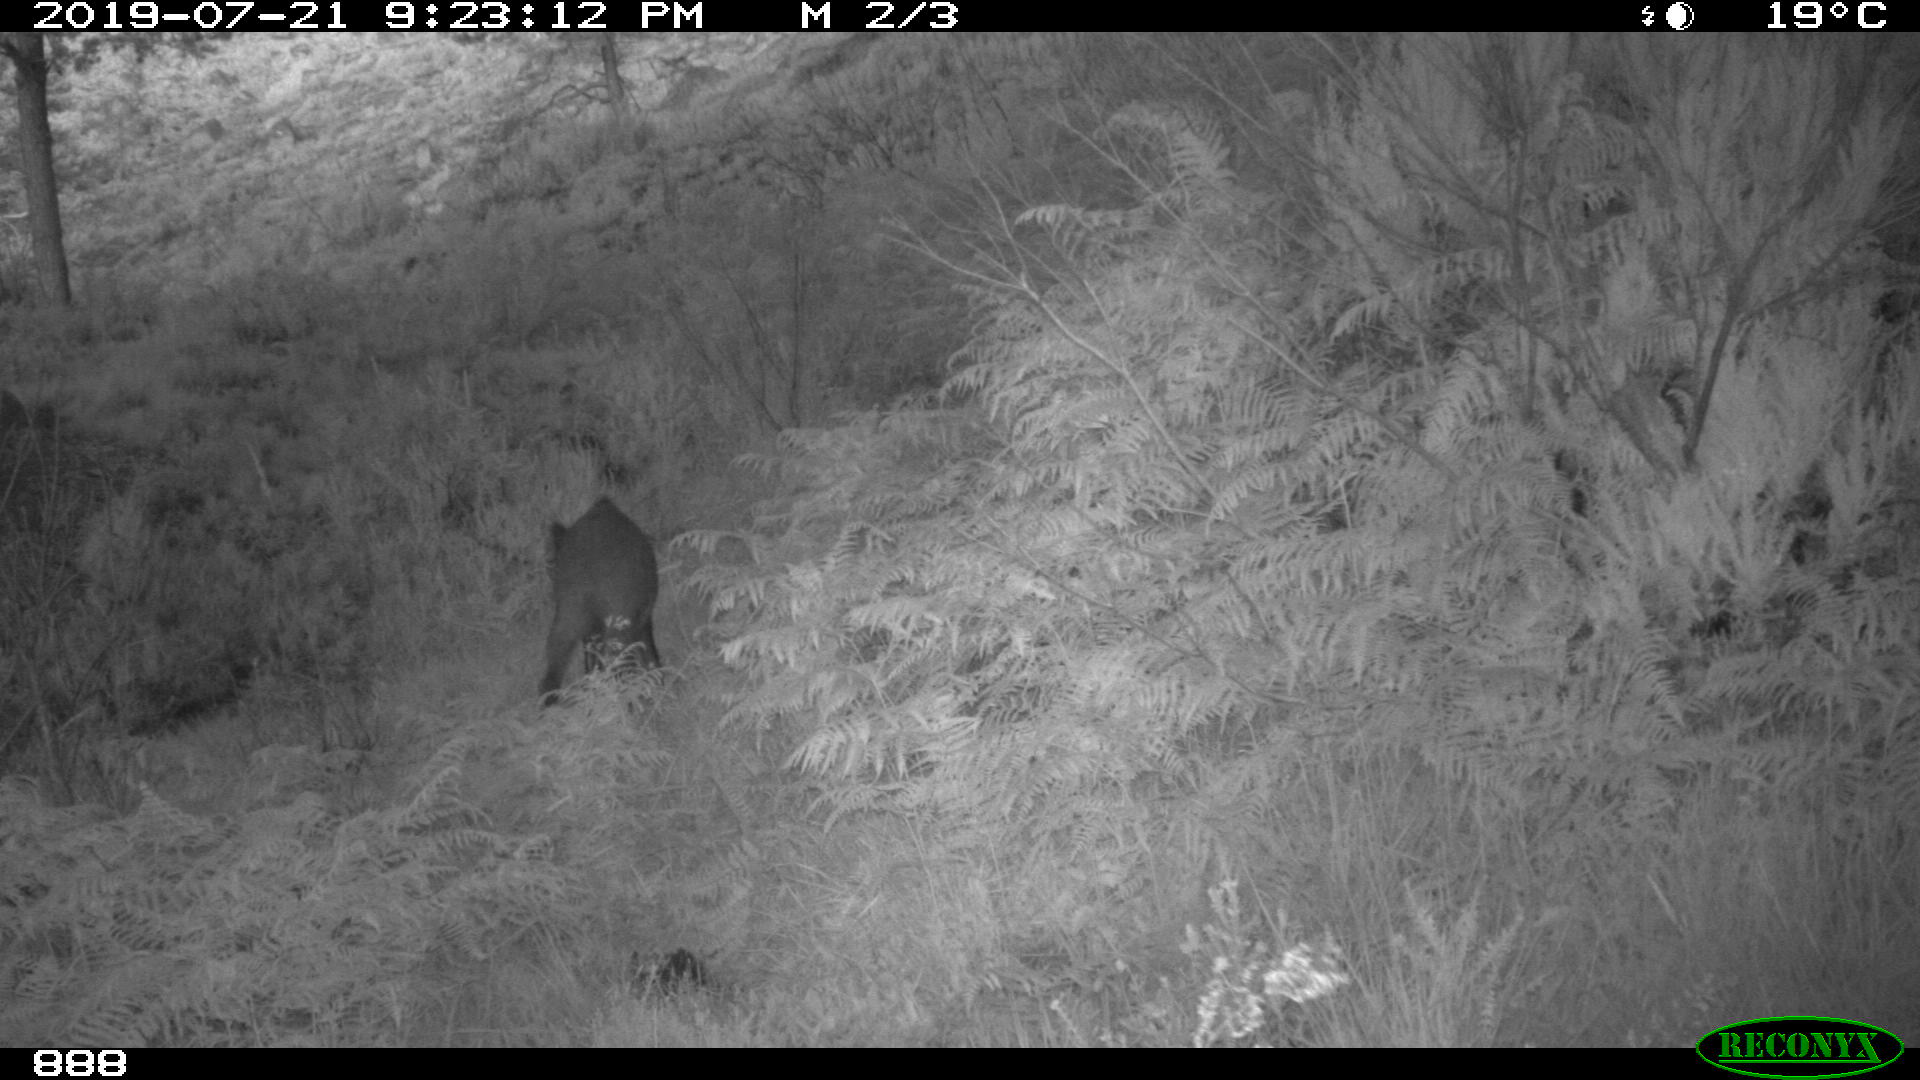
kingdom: Animalia
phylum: Chordata
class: Mammalia
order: Artiodactyla
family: Suidae
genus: Sus
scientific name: Sus scrofa
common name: Wild boar
